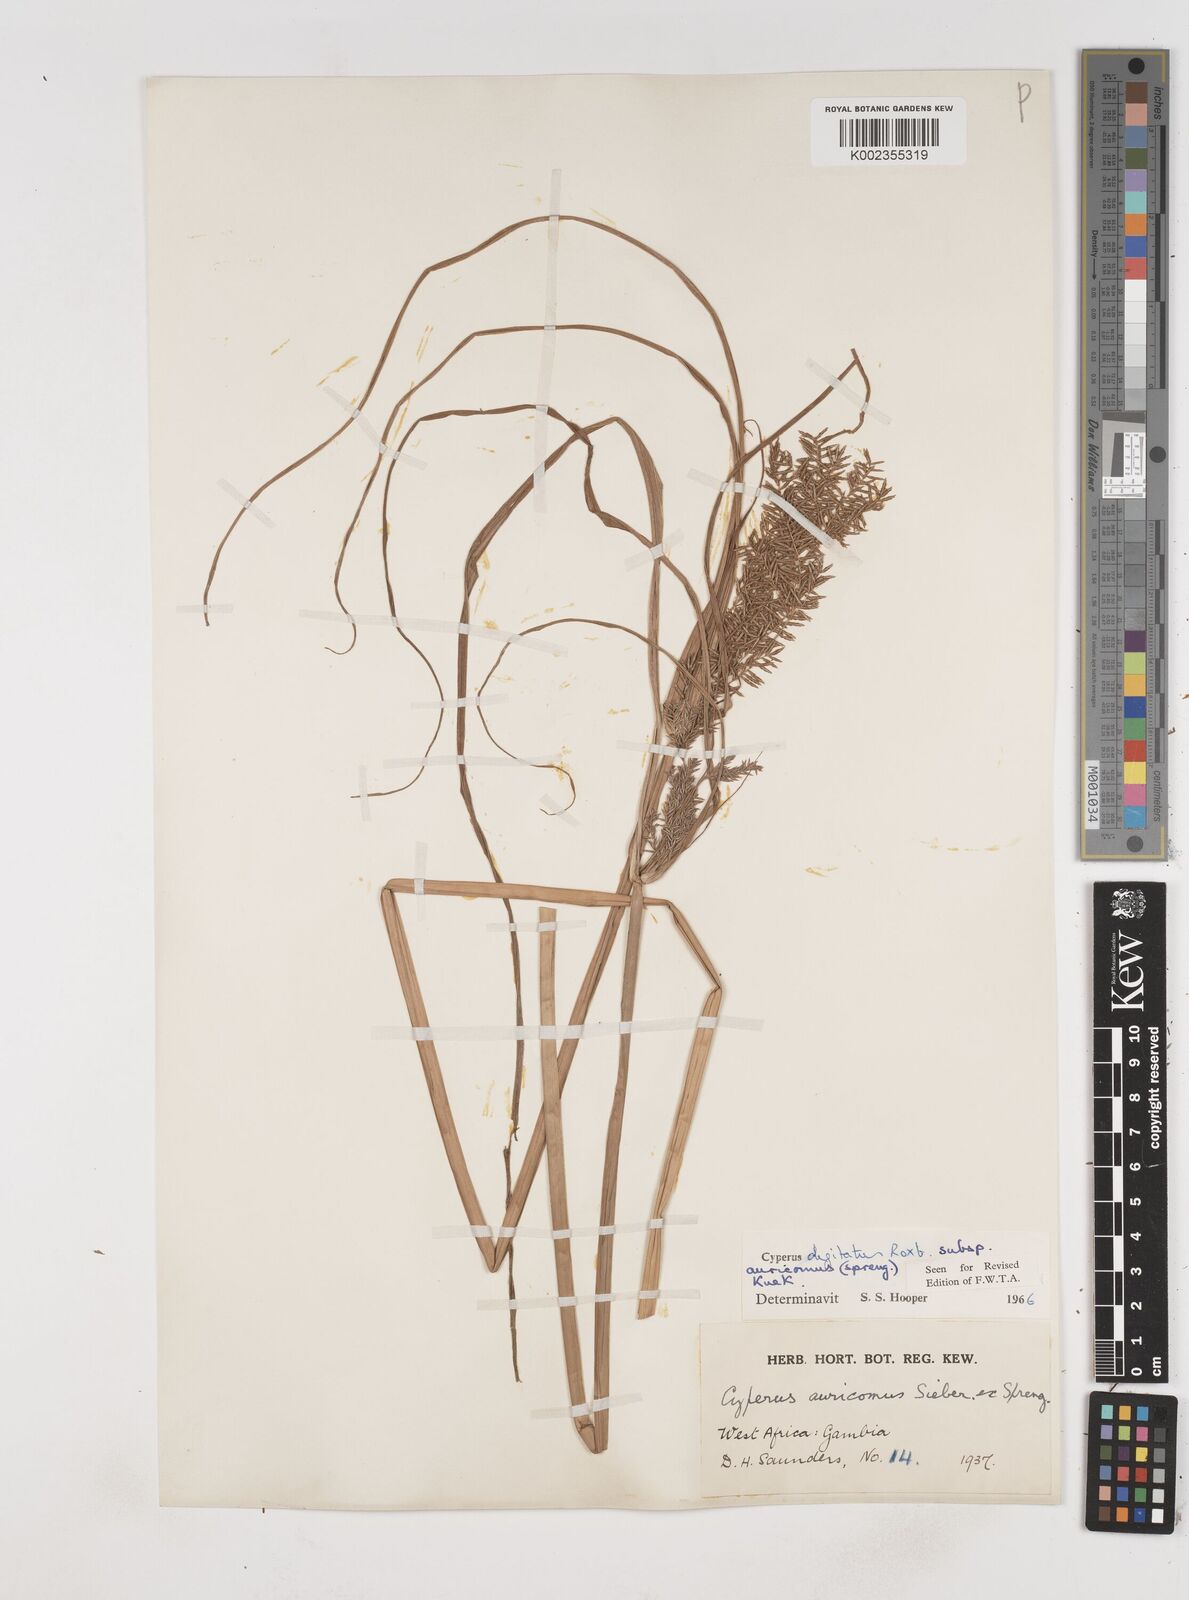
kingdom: Plantae
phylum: Tracheophyta
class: Liliopsida
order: Poales
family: Cyperaceae
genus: Cyperus
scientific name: Cyperus digitatus
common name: Finger flatsedge
